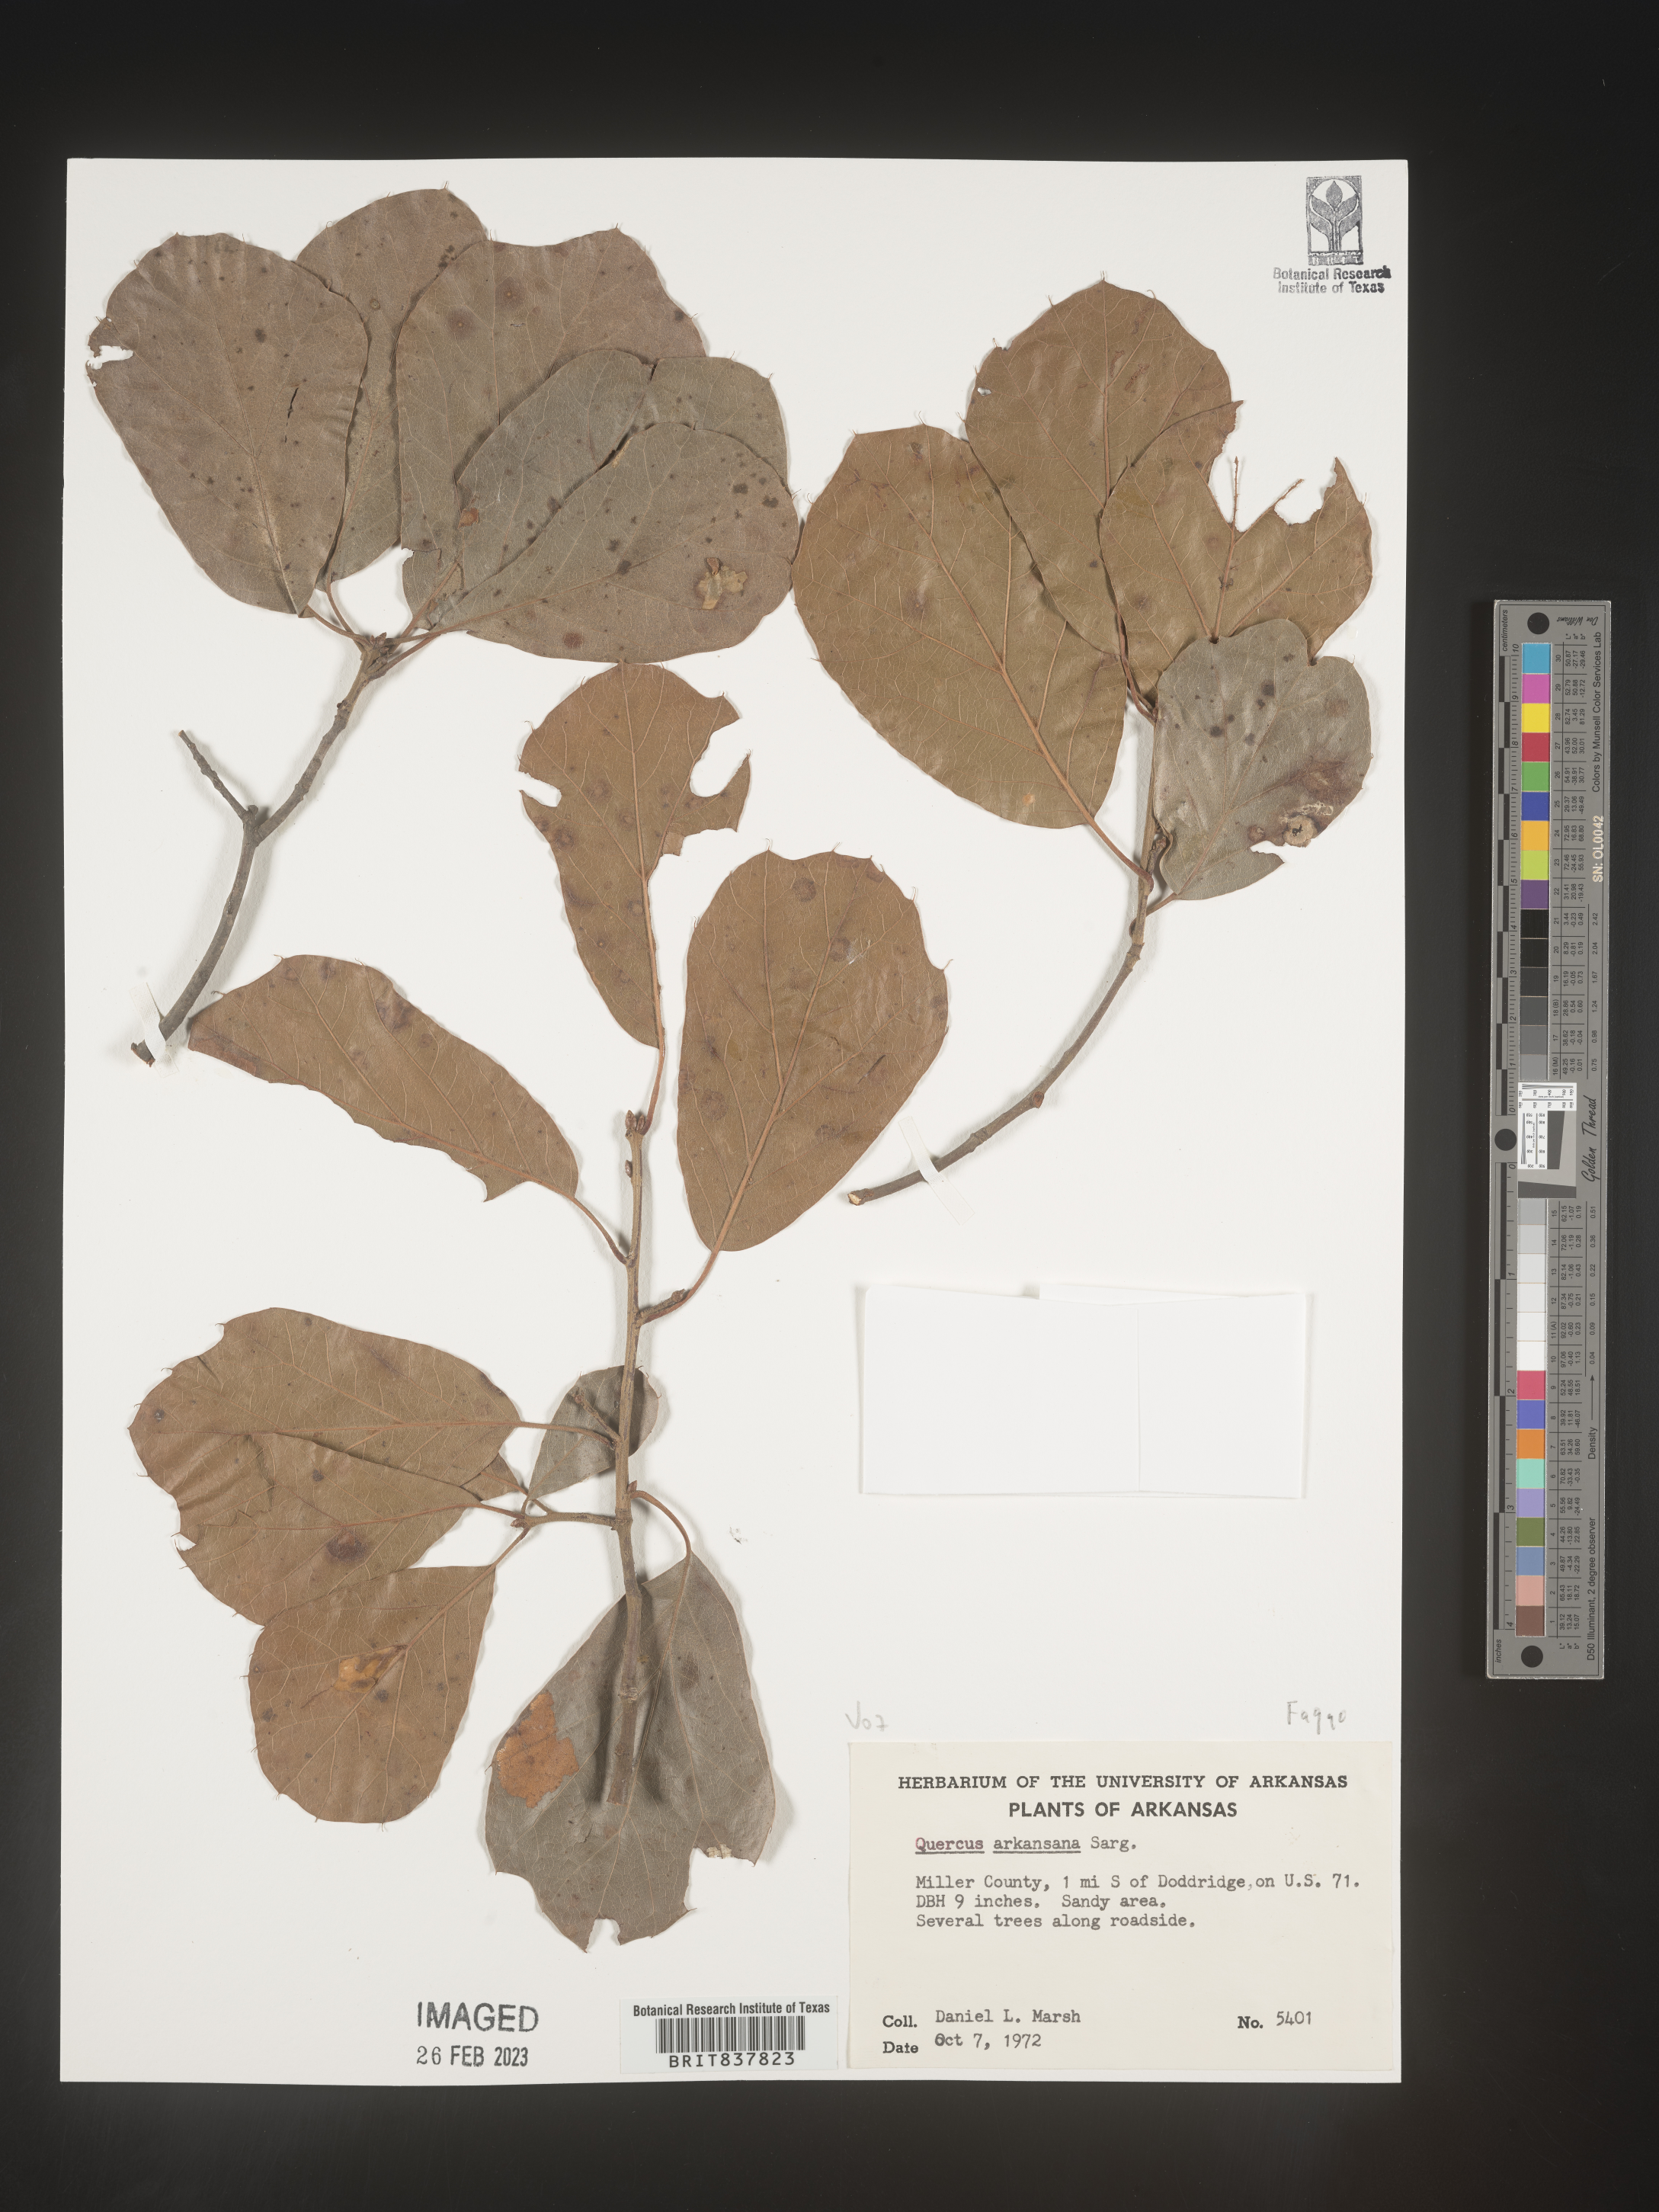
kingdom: Plantae
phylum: Tracheophyta
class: Magnoliopsida
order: Fagales
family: Fagaceae
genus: Quercus
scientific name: Quercus arkansana
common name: Arkansas oak
